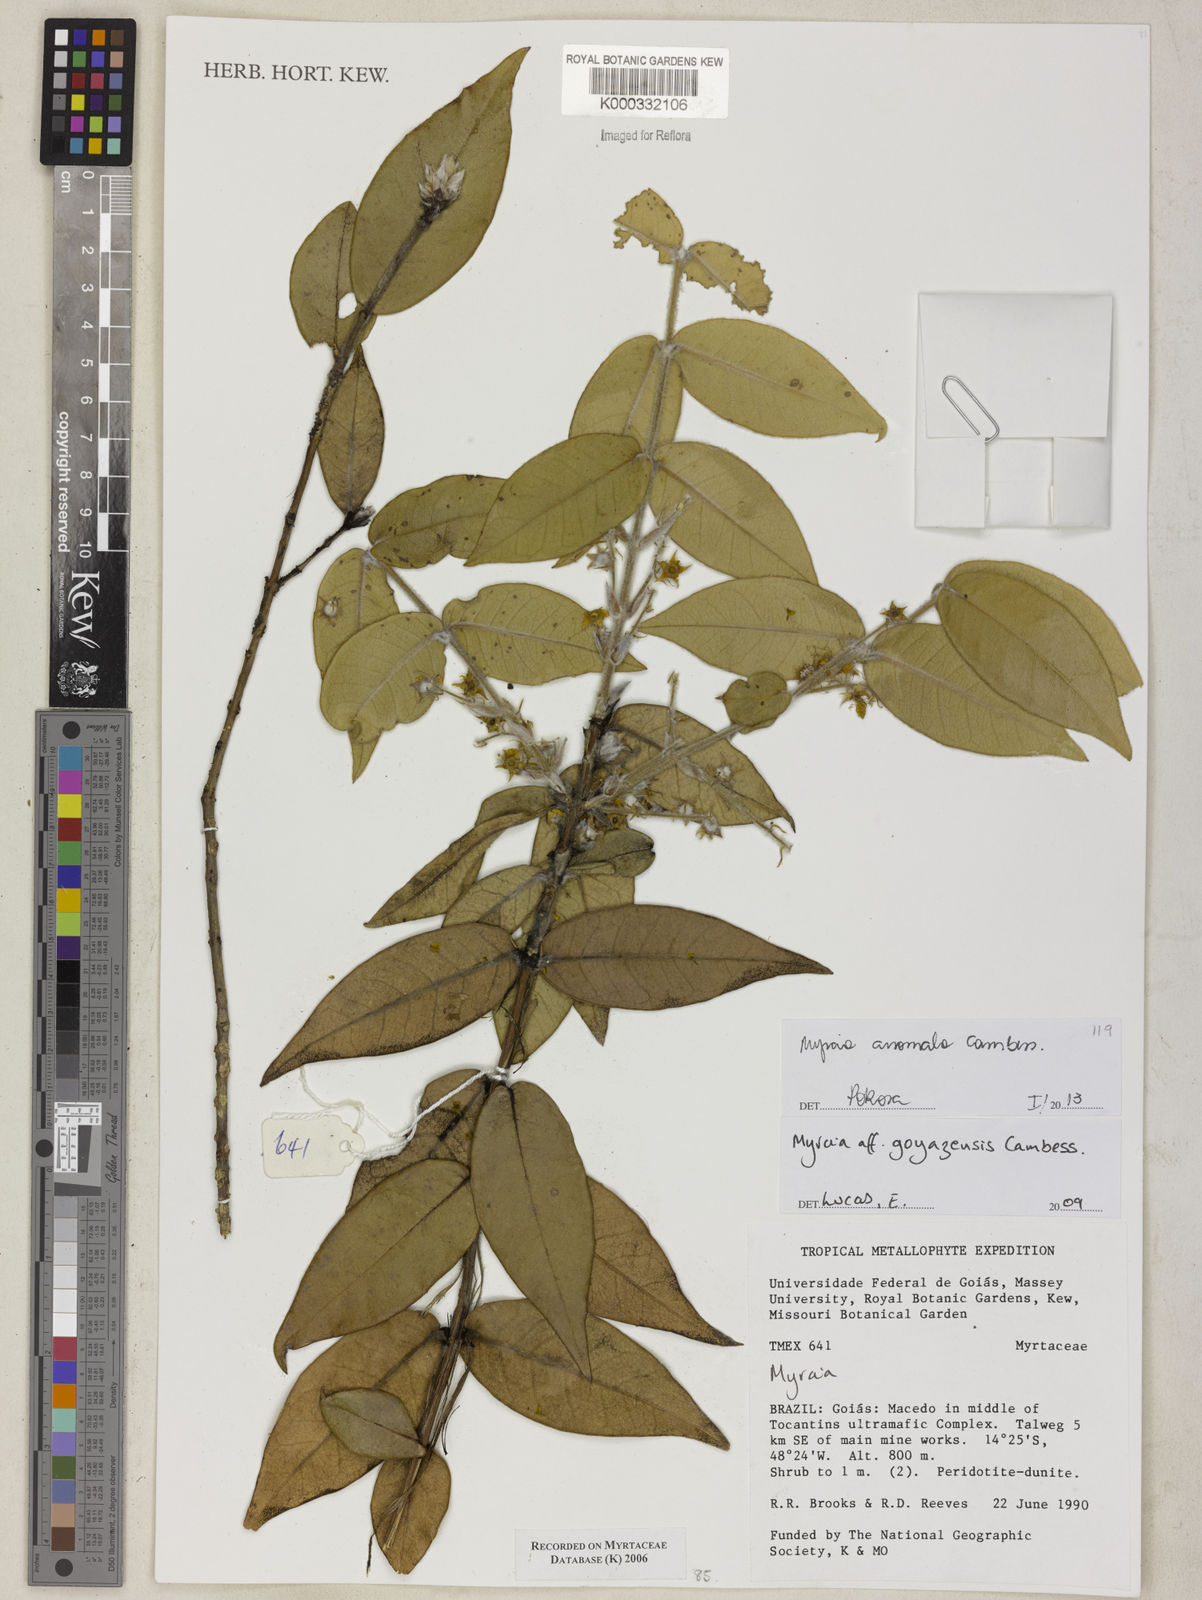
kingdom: Plantae
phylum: Tracheophyta
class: Magnoliopsida
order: Myrtales
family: Myrtaceae
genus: Myrcia
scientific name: Myrcia anomala
